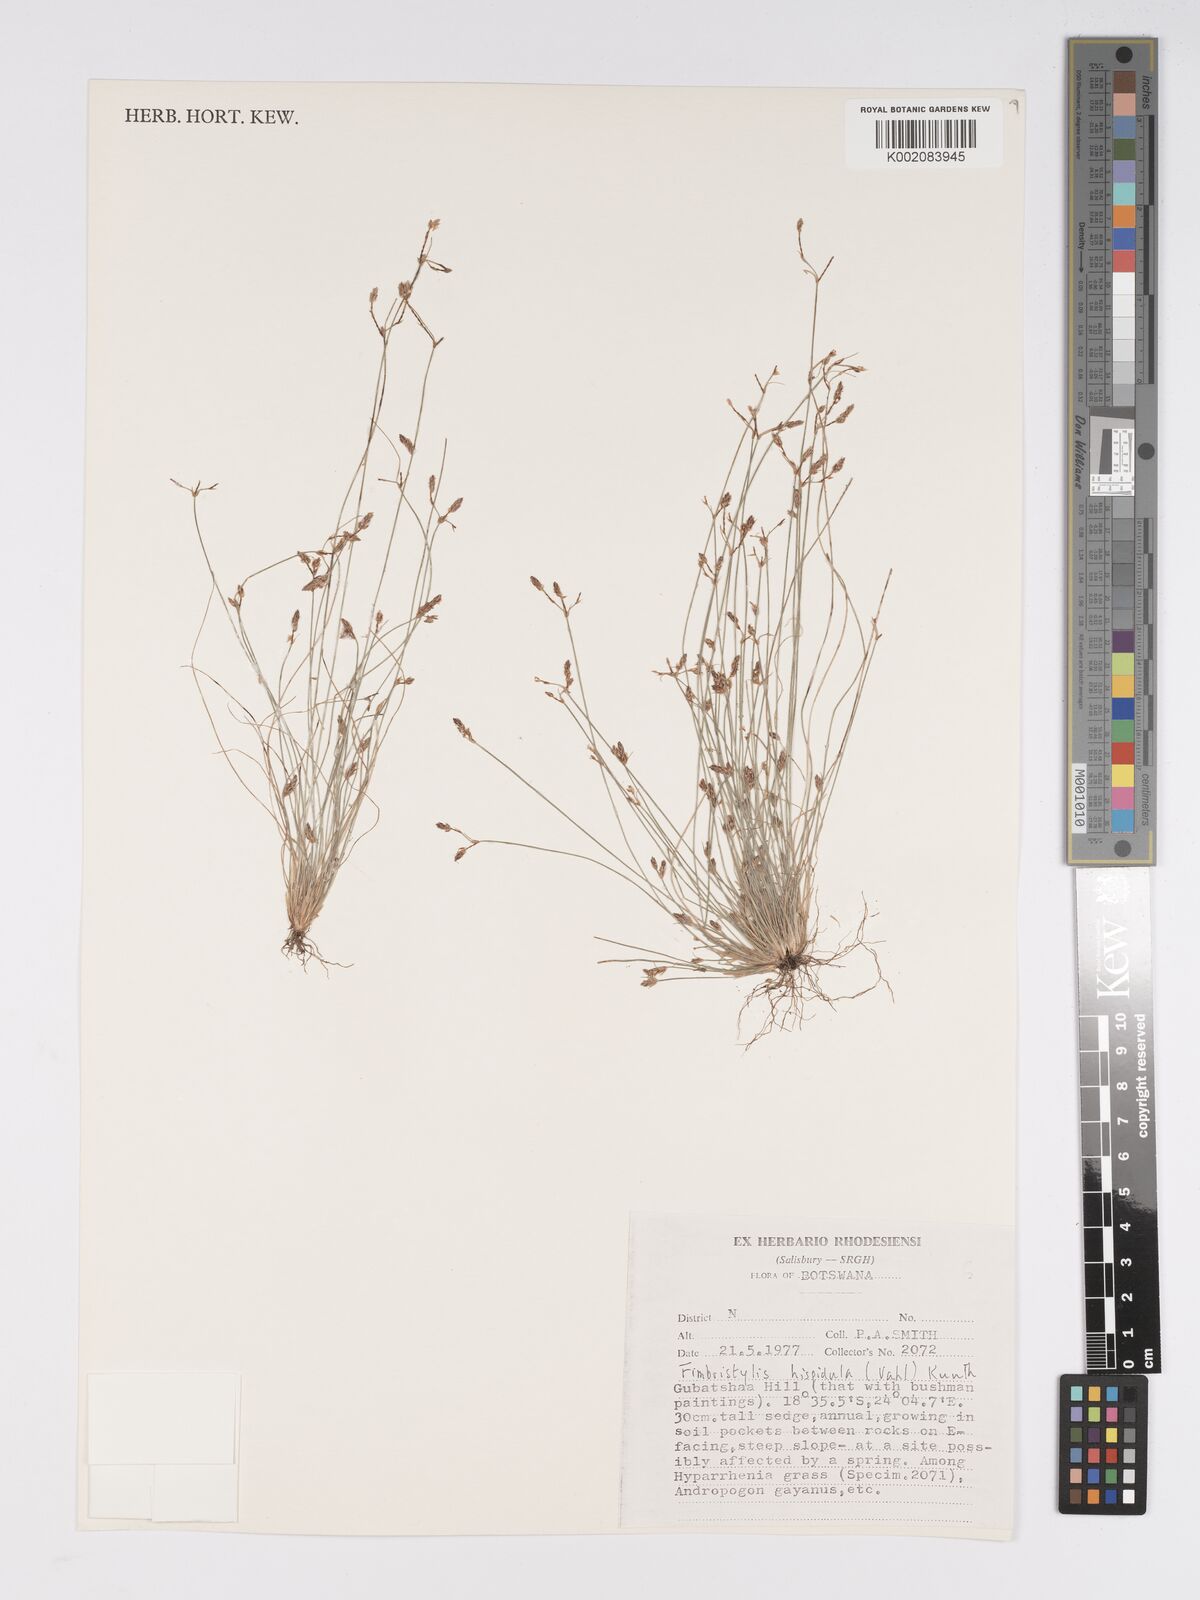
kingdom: Plantae
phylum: Tracheophyta
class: Liliopsida
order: Poales
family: Cyperaceae
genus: Bulbostylis
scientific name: Bulbostylis hispidula
